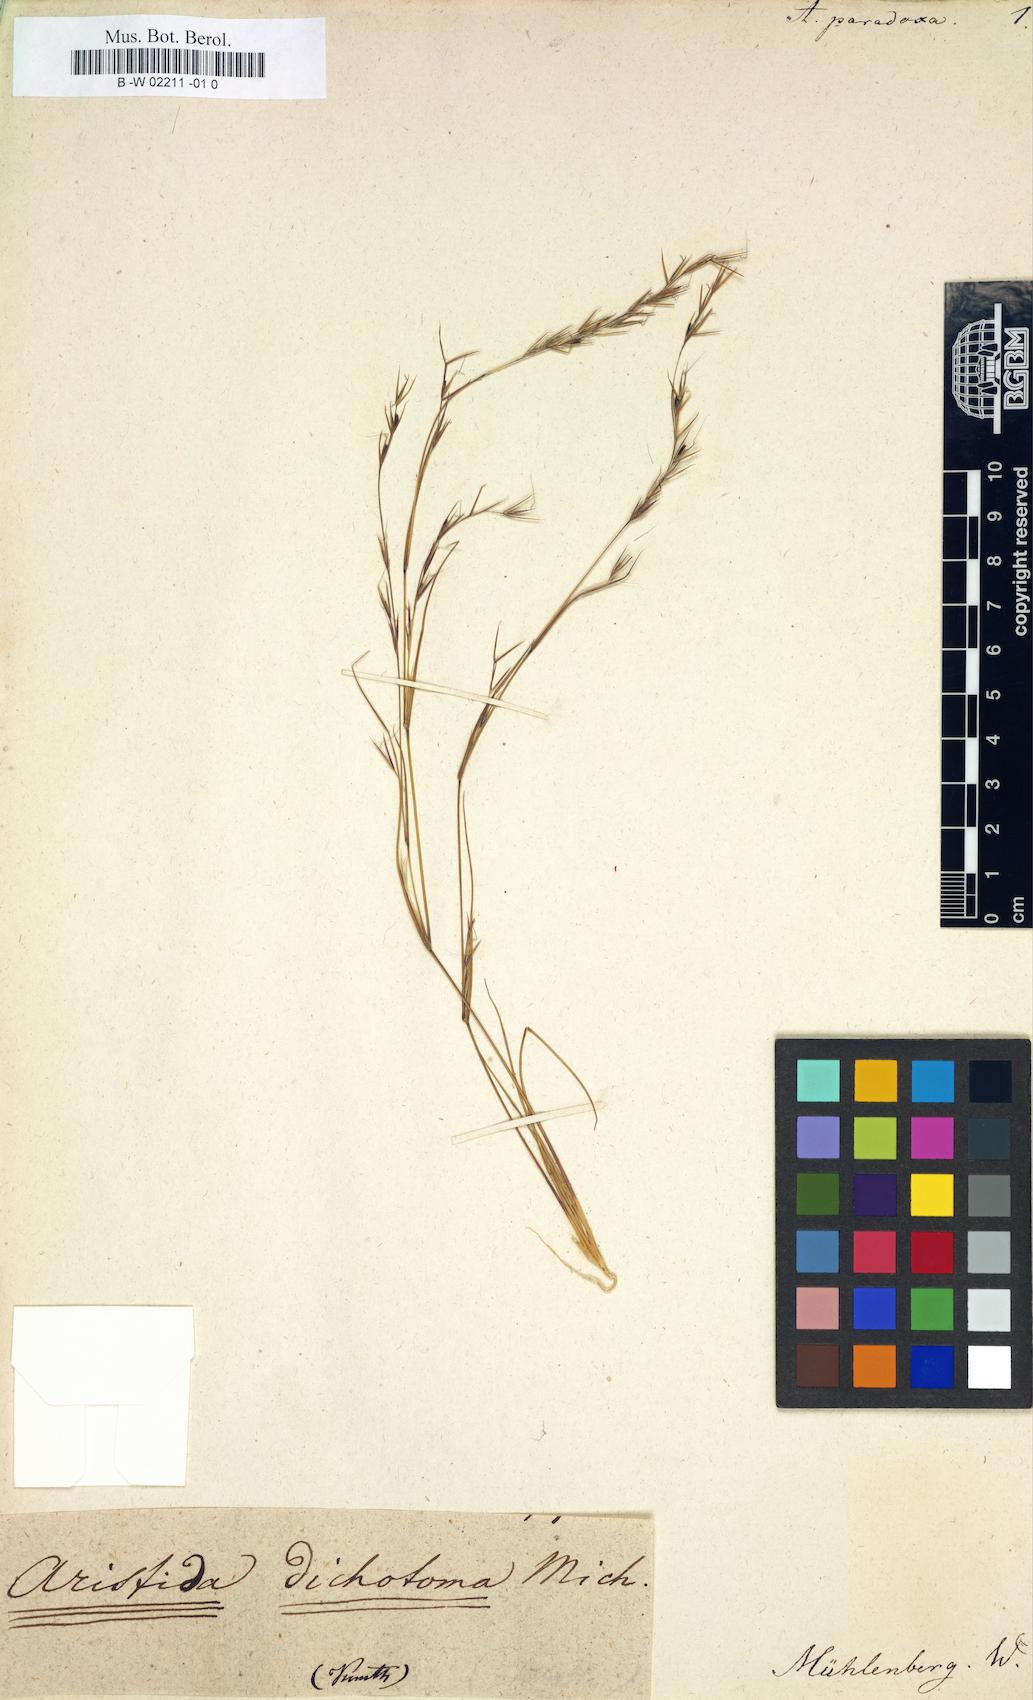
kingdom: Plantae
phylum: Tracheophyta
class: Liliopsida
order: Poales
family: Poaceae
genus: Aristida
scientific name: Aristida dichotoma
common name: Churchmouse three-awn
